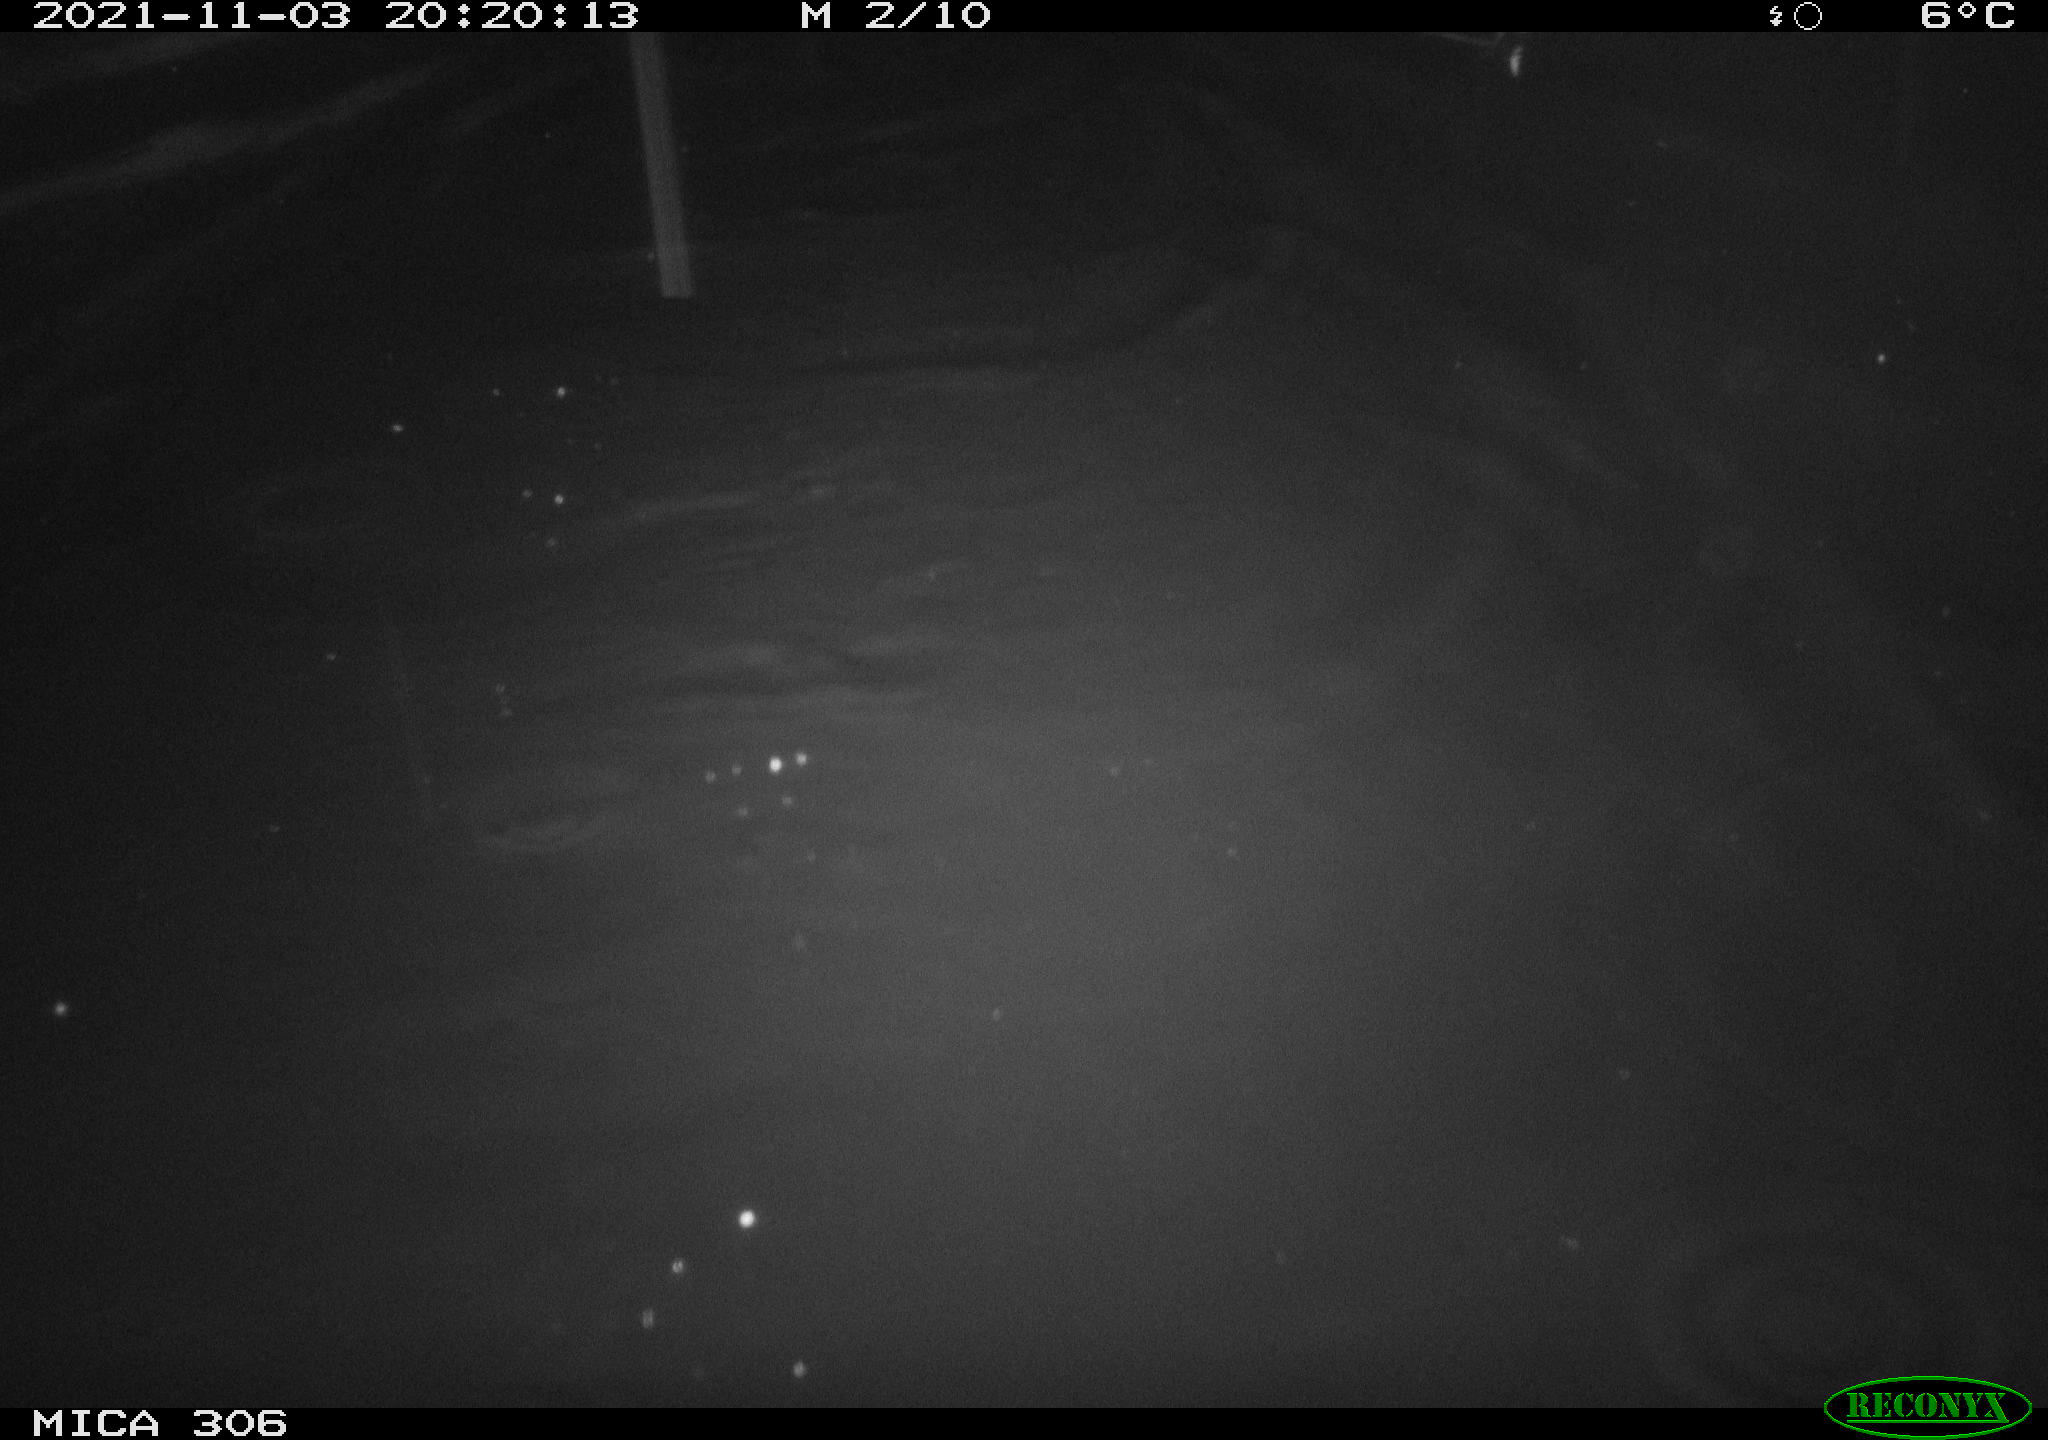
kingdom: Animalia
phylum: Chordata
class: Mammalia
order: Rodentia
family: Cricetidae
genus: Ondatra
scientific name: Ondatra zibethicus
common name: Muskrat
